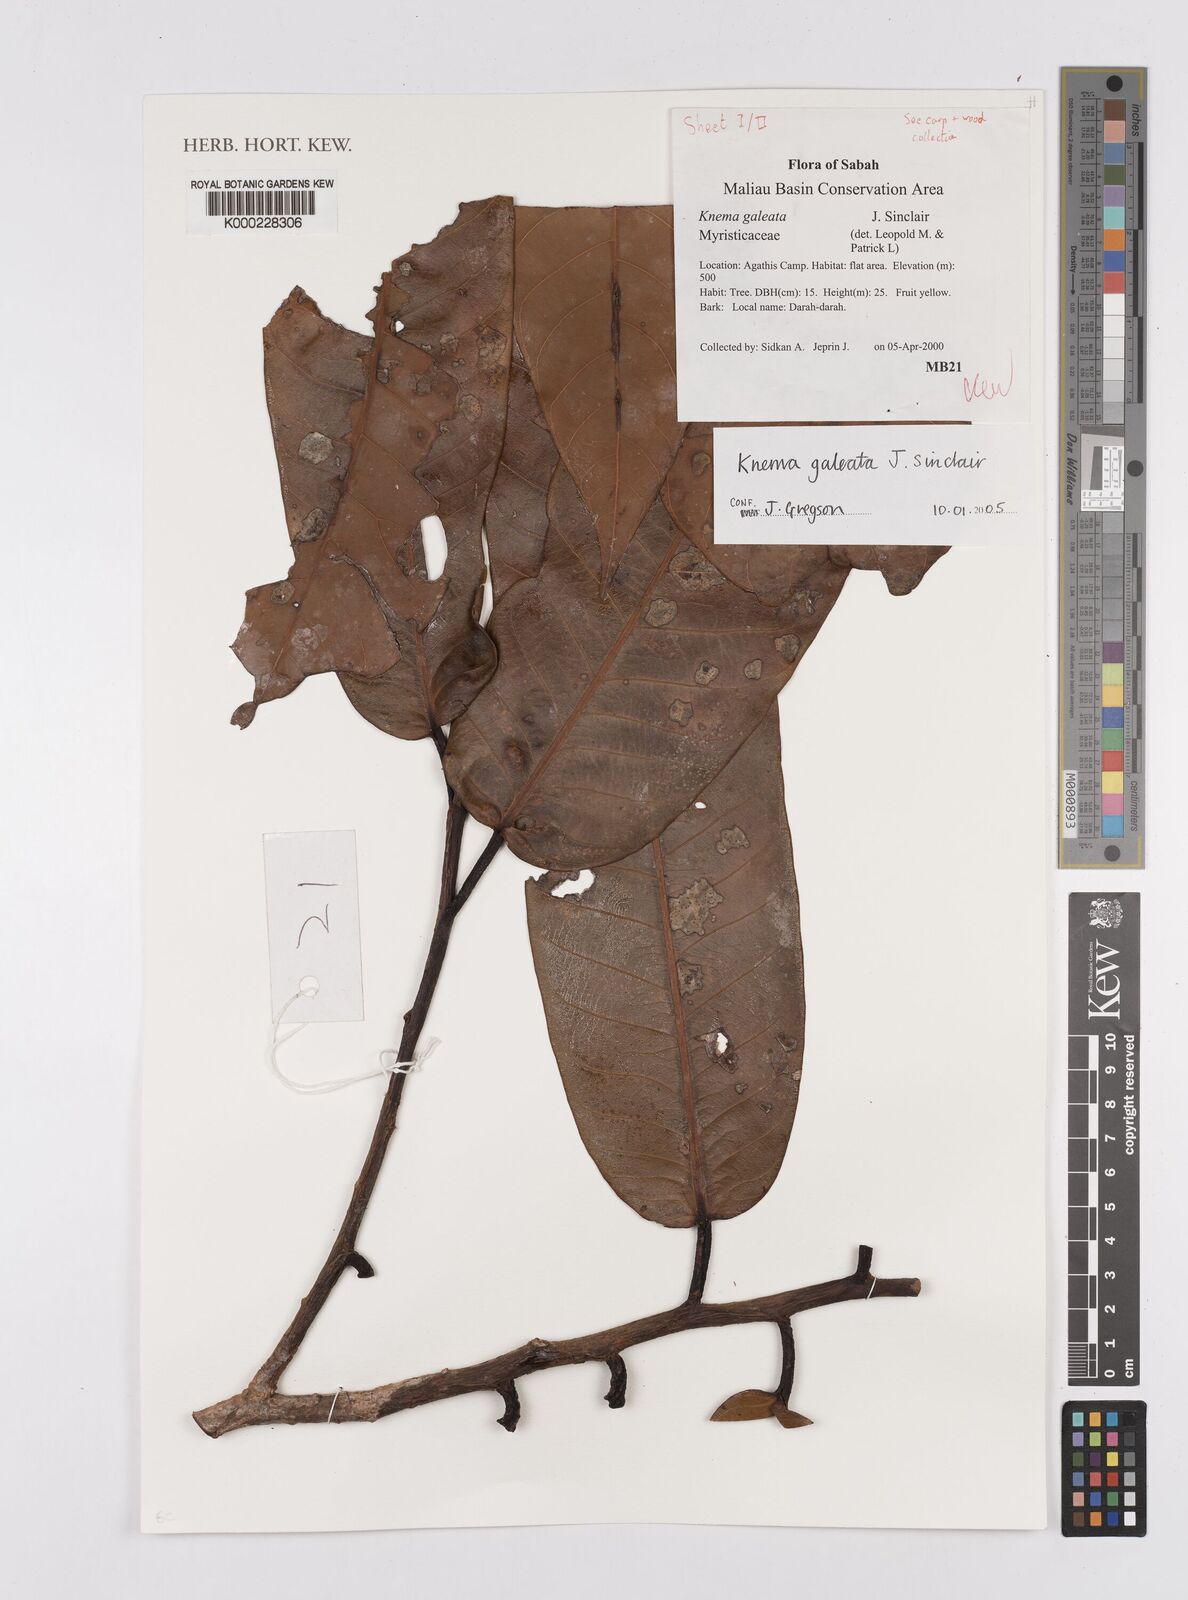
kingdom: Plantae
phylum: Tracheophyta
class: Magnoliopsida
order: Magnoliales
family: Myristicaceae
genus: Knema
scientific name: Knema galeata
